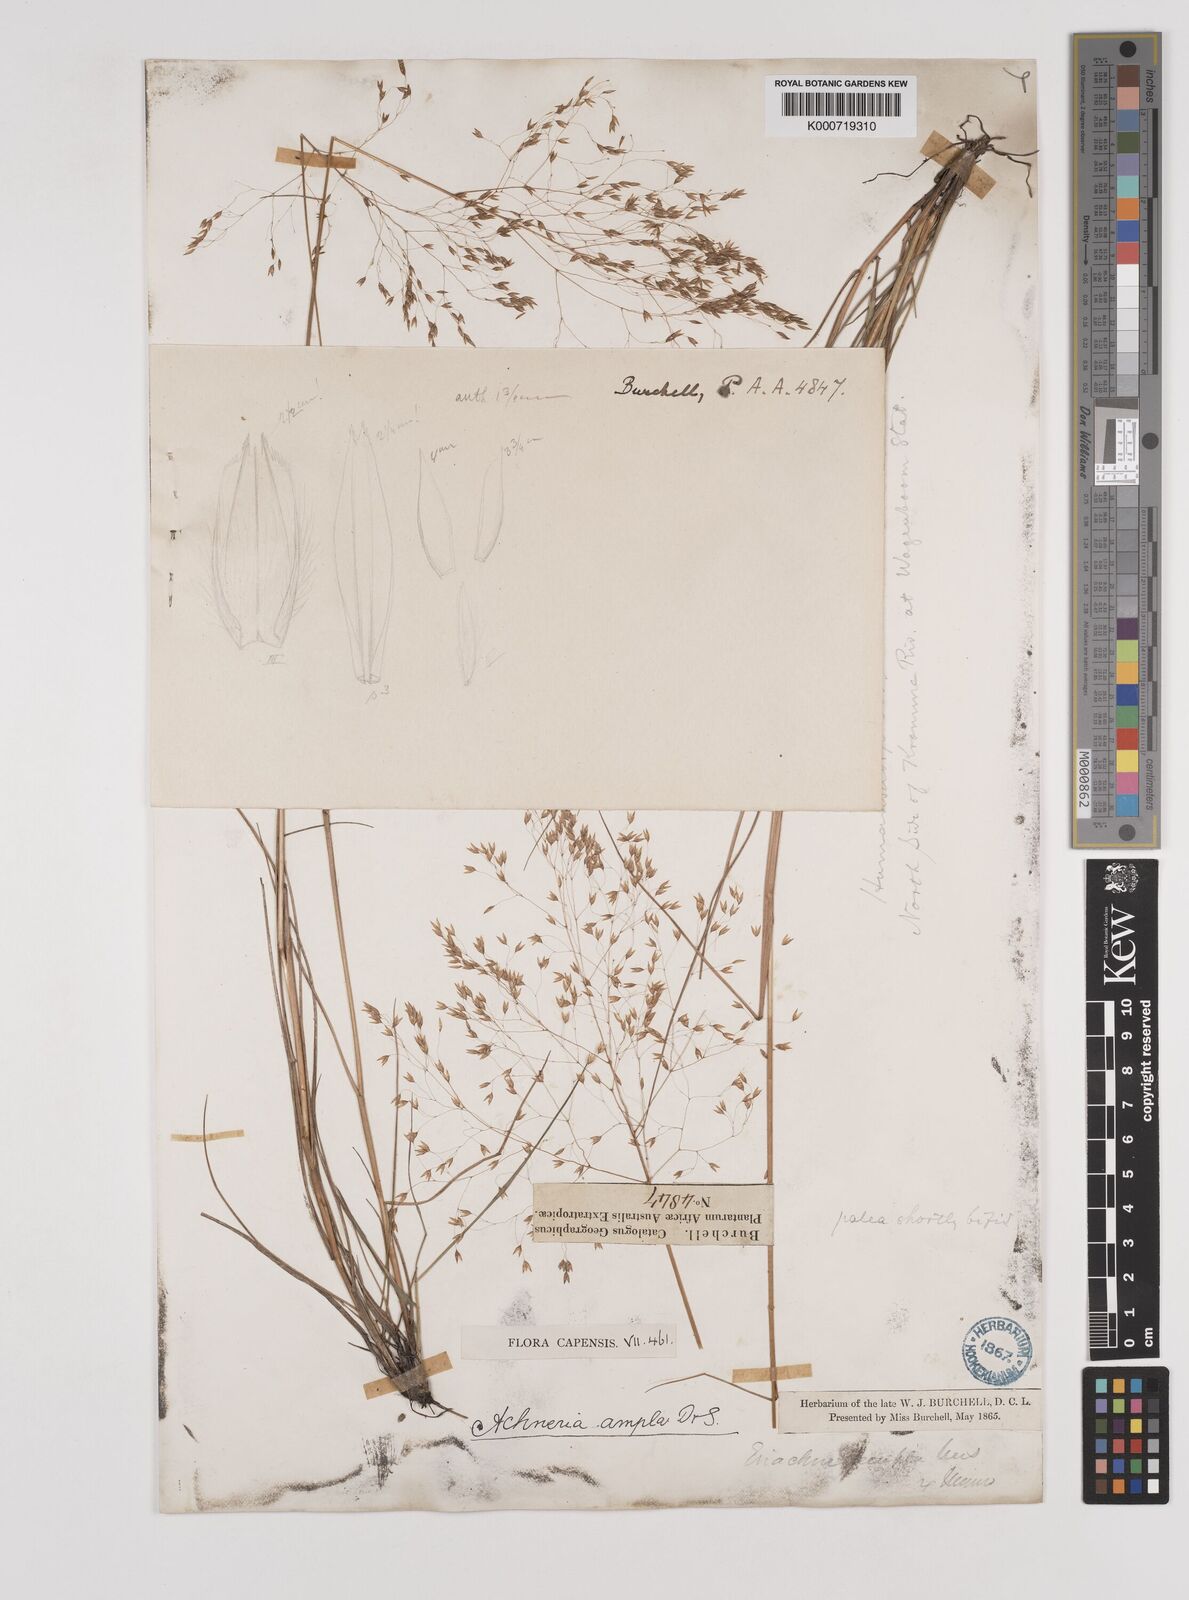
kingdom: Plantae
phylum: Tracheophyta
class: Liliopsida
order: Poales
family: Poaceae
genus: Pentameris
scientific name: Pentameris ampla
